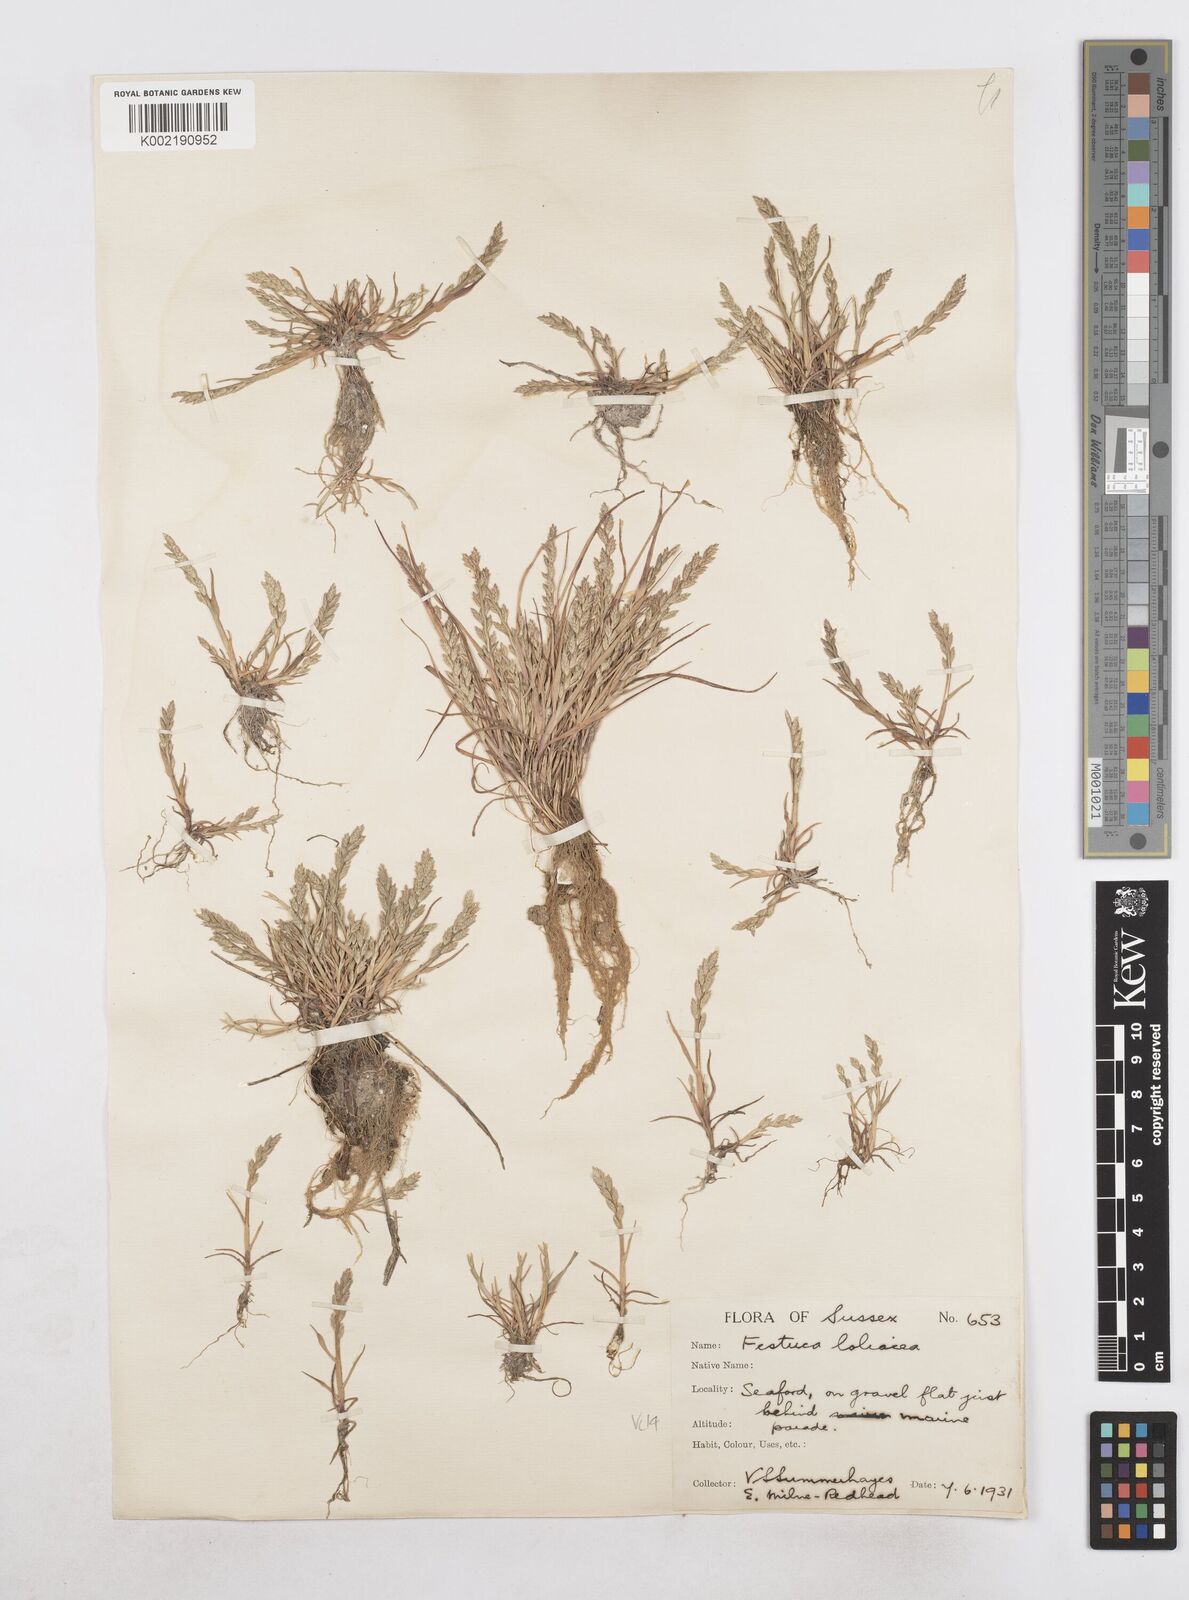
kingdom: Plantae
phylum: Tracheophyta
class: Liliopsida
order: Poales
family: Poaceae
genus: Catapodium
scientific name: Catapodium marinum
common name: Sea fern-grass
